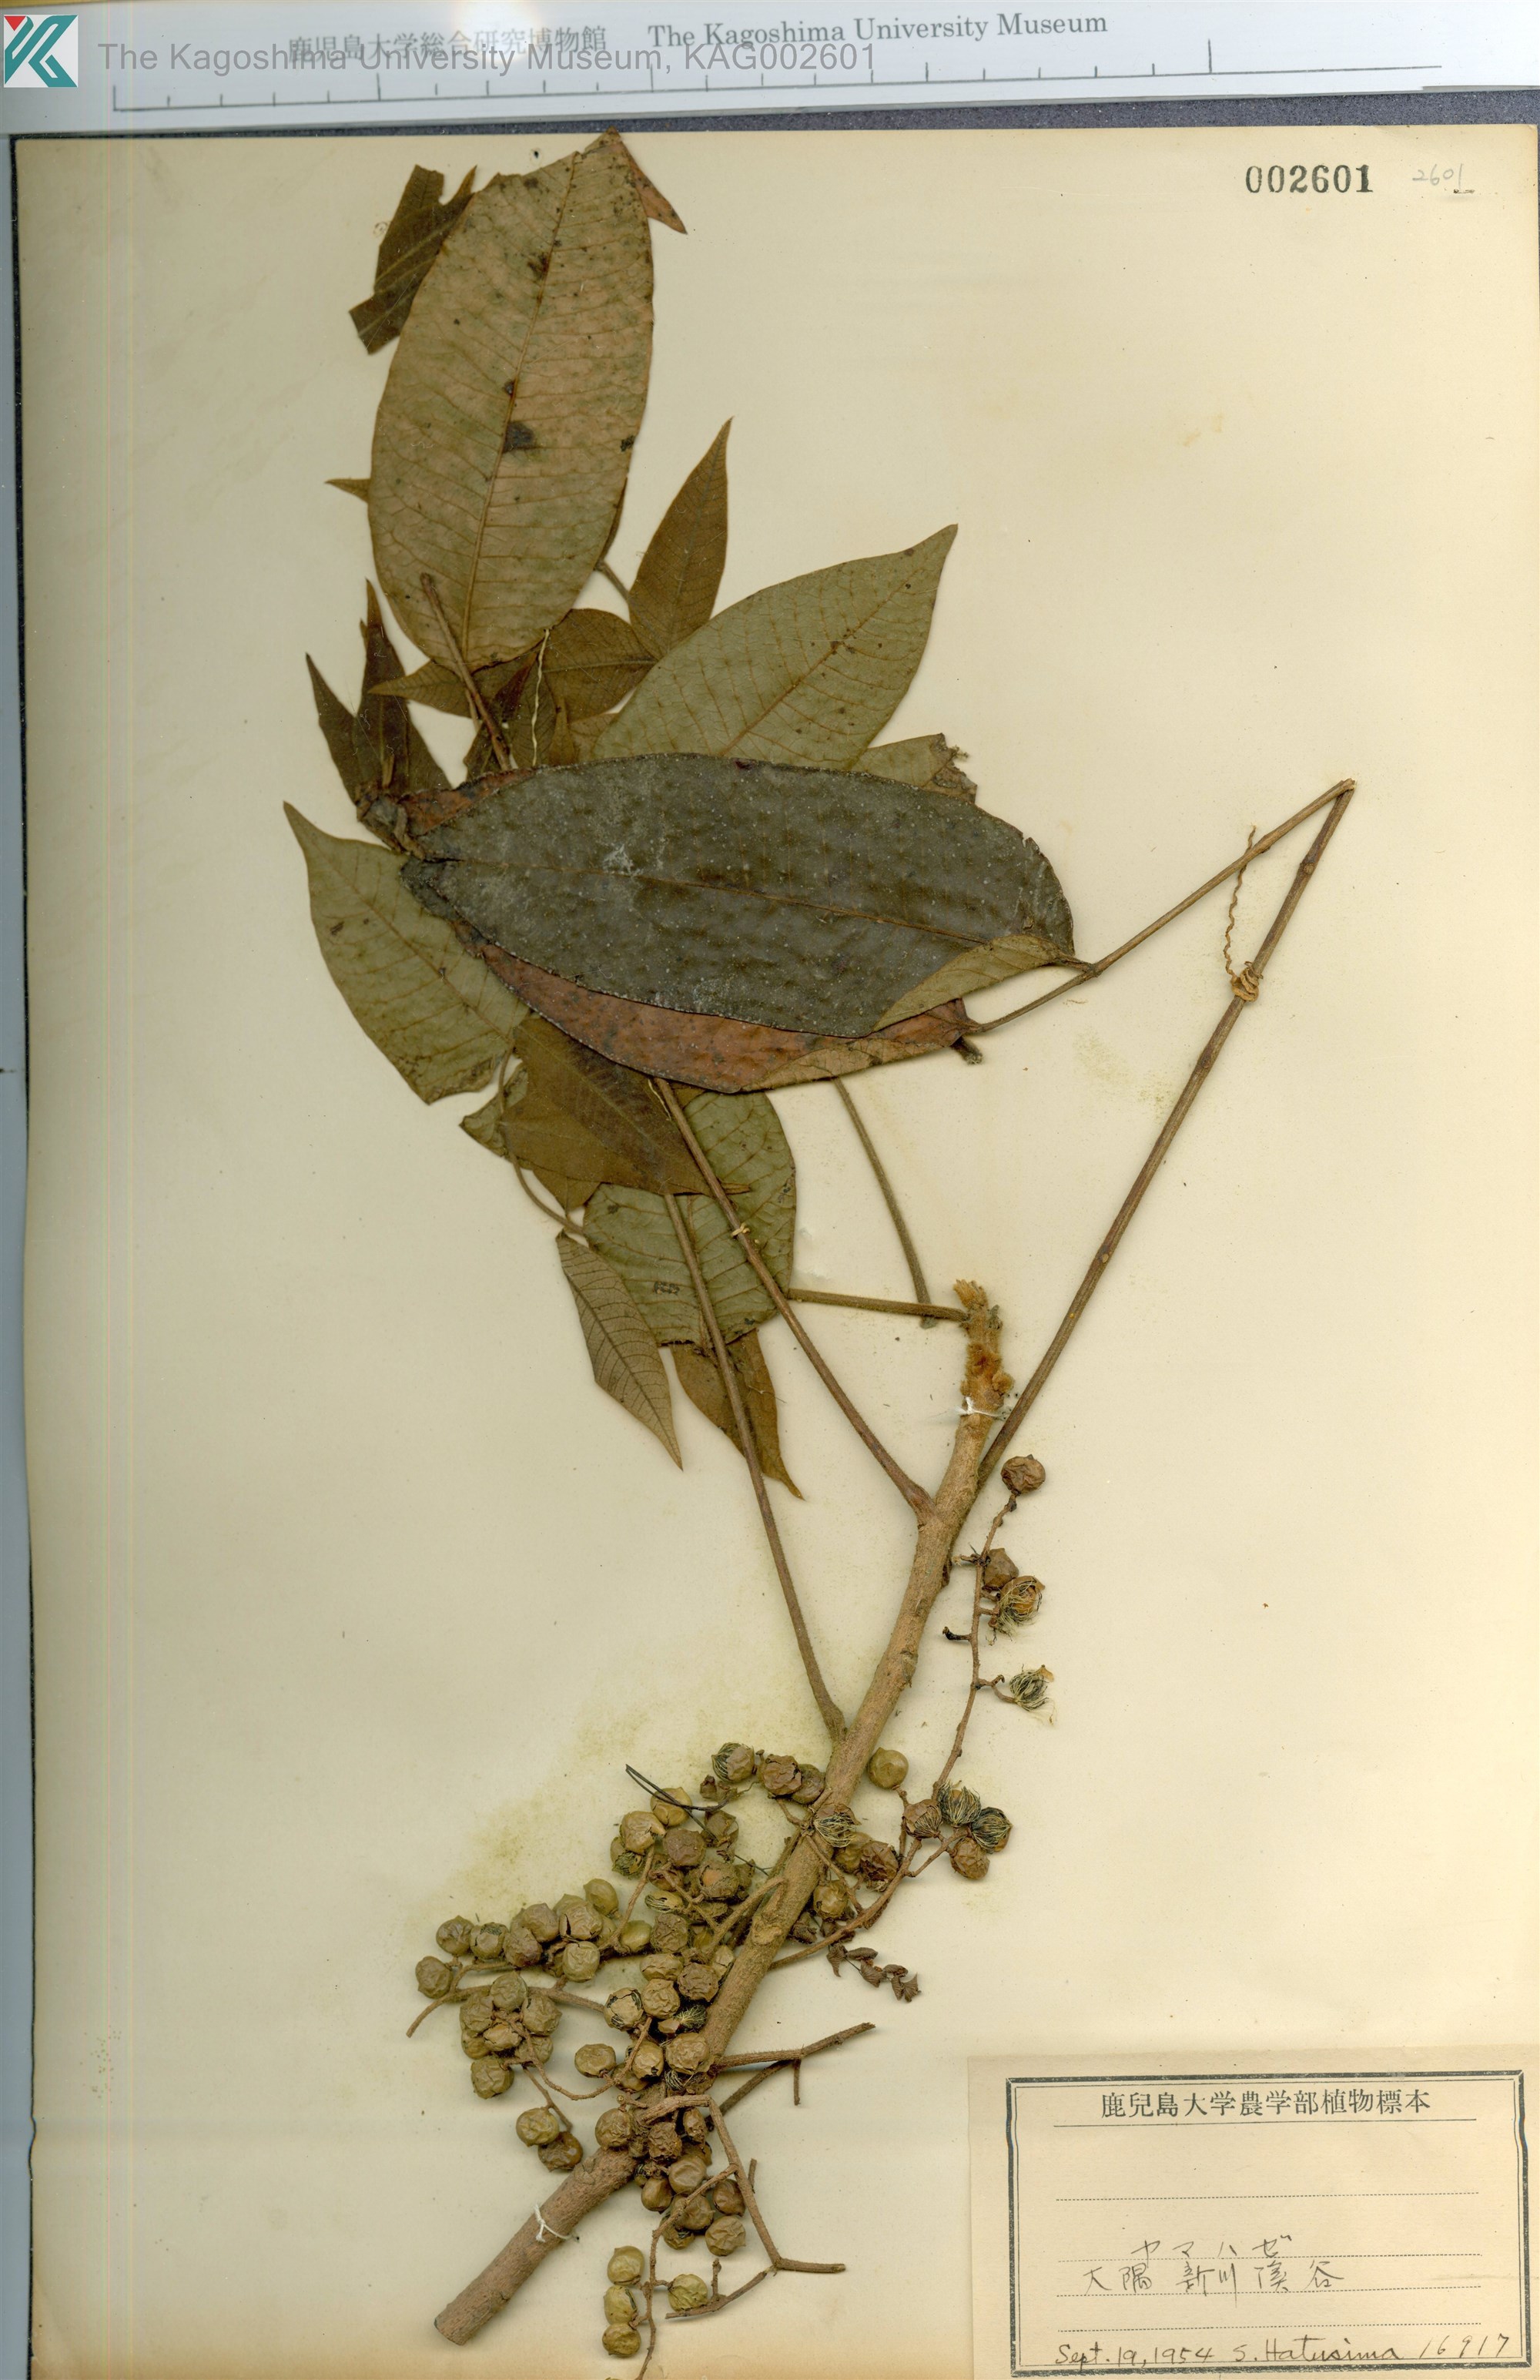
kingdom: Plantae
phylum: Tracheophyta
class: Magnoliopsida
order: Sapindales
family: Anacardiaceae
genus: Toxicodendron
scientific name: Toxicodendron trichocarpum
